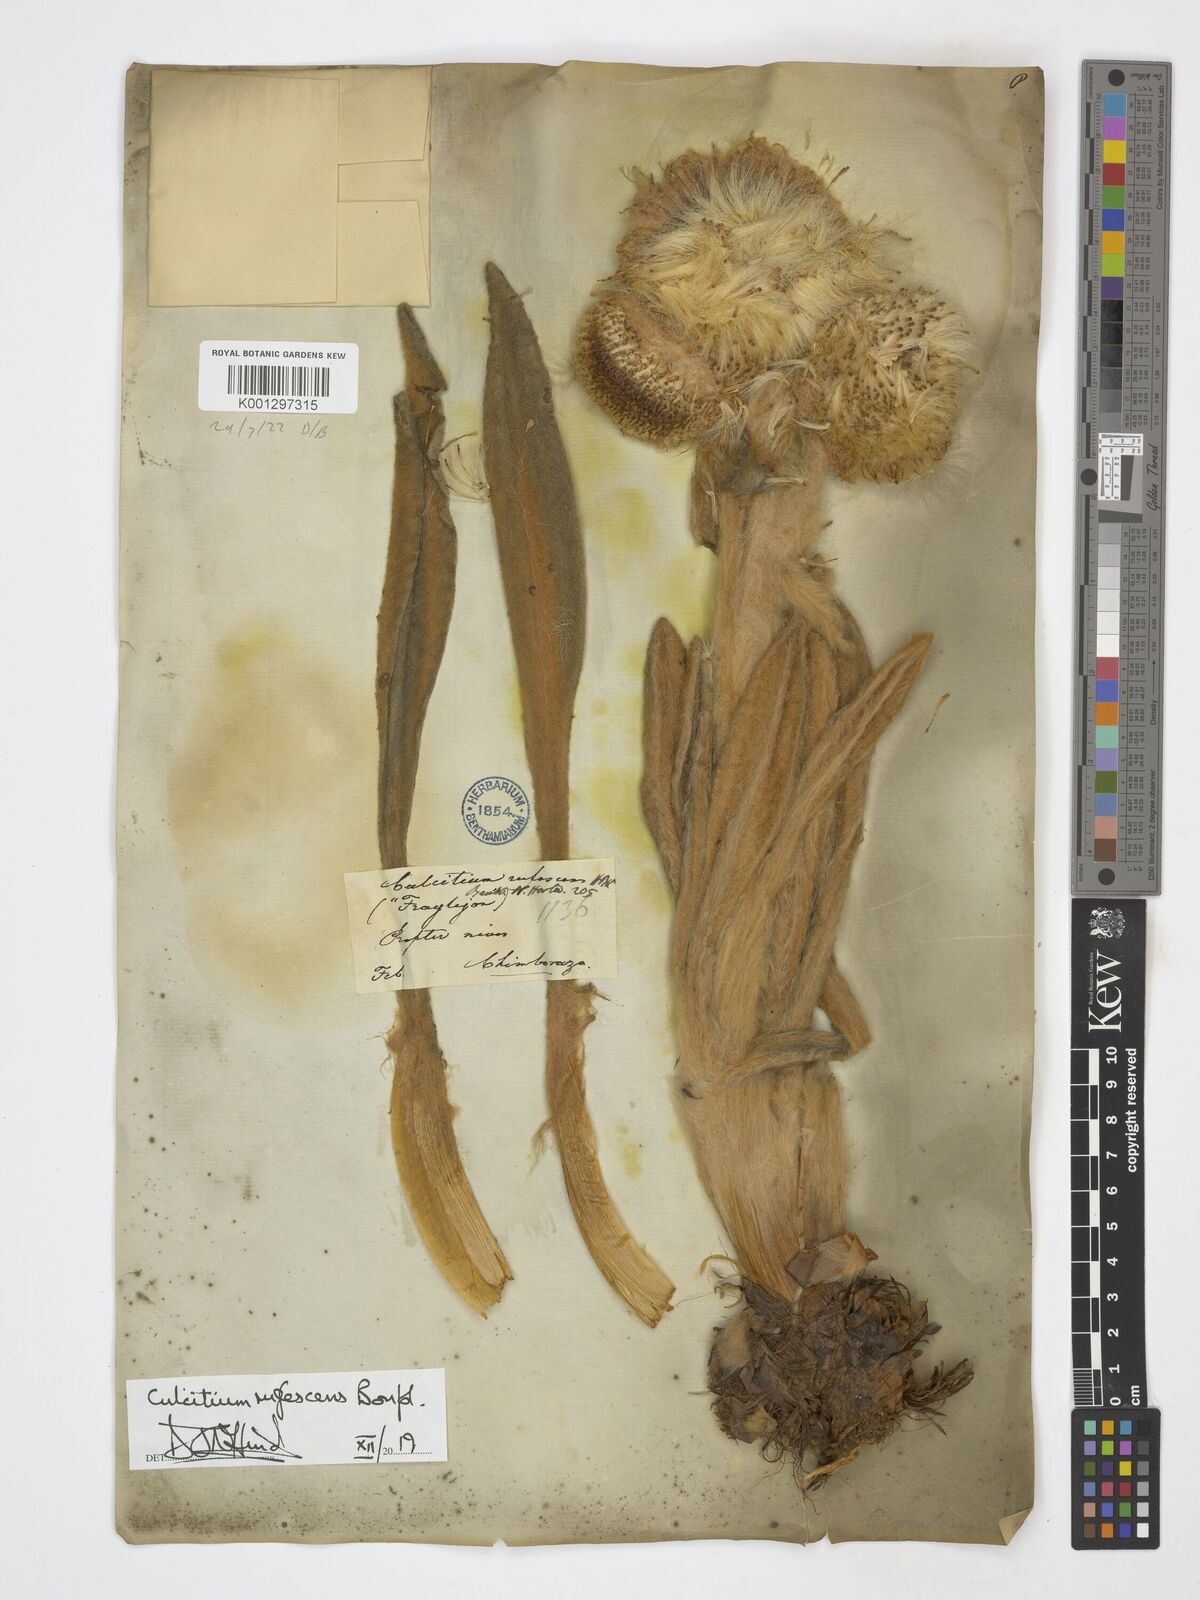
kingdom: Plantae
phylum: Tracheophyta
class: Magnoliopsida
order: Asterales
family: Asteraceae
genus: Culcitium
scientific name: Culcitium canescens
